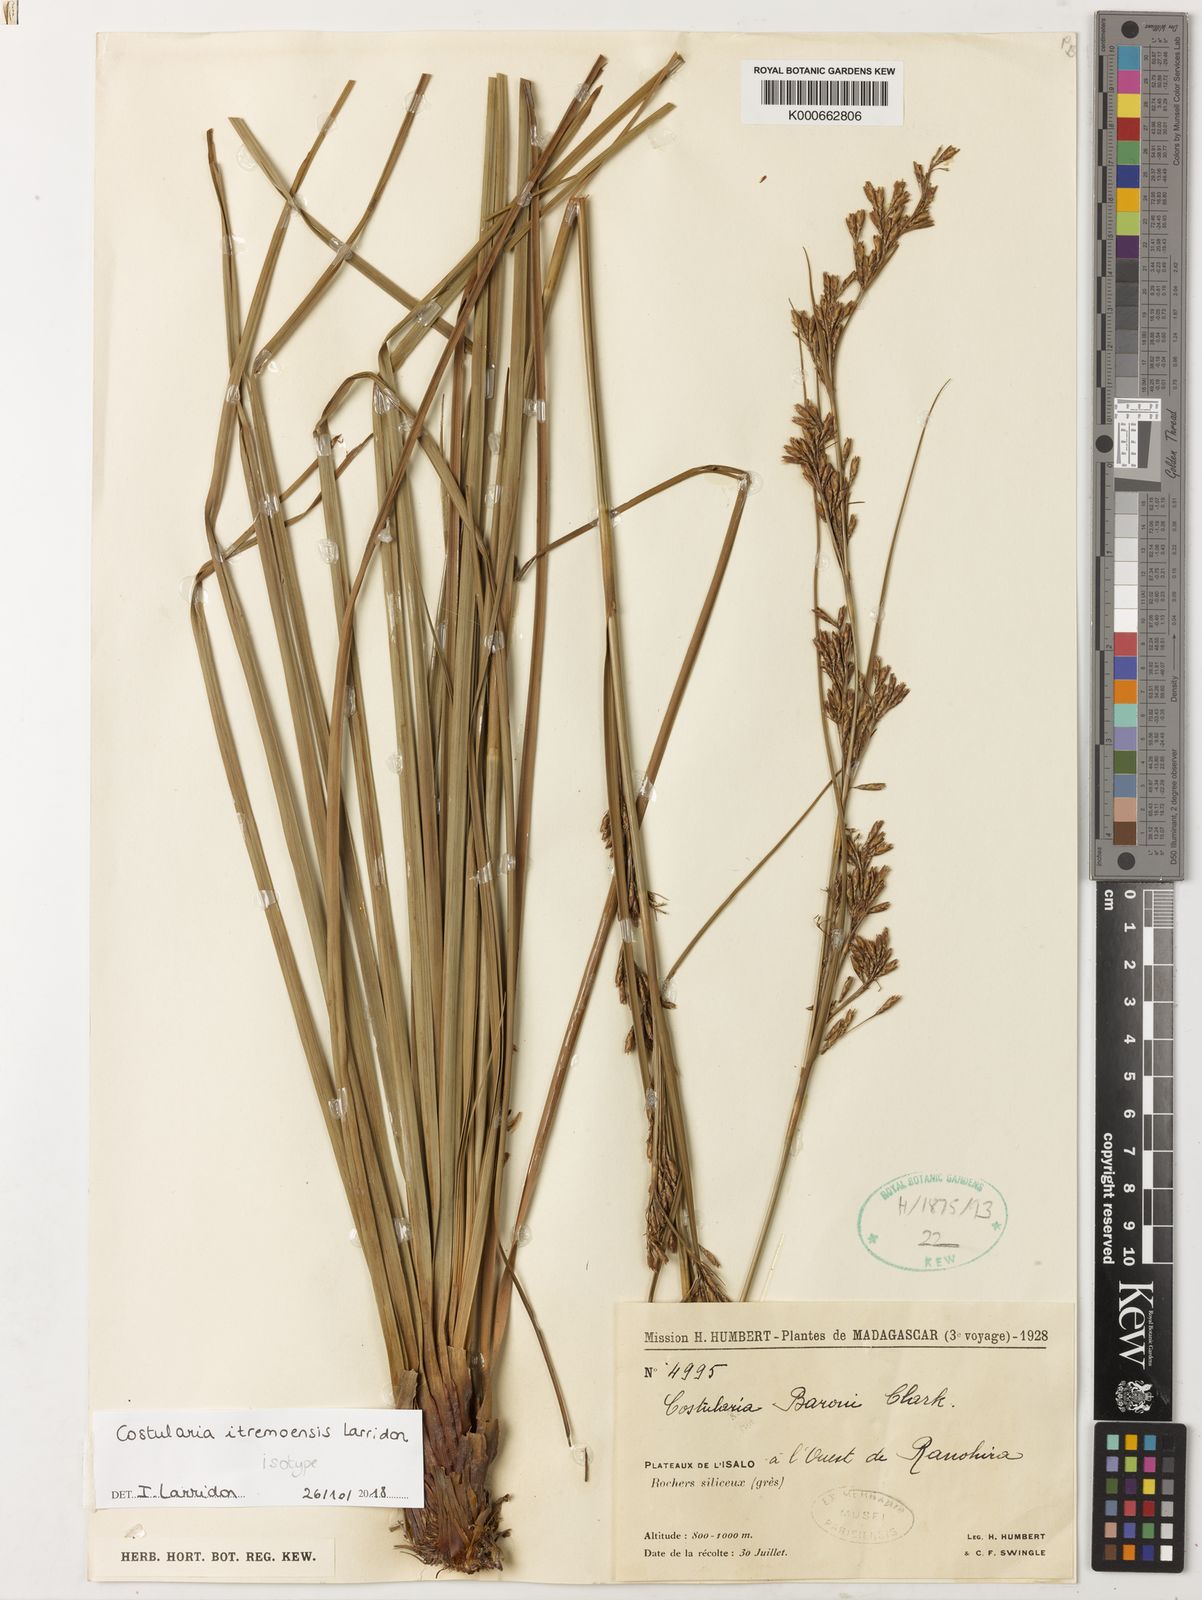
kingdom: Plantae
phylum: Tracheophyta
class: Liliopsida
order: Poales
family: Cyperaceae
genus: Costularia
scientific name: Costularia itremoensis
